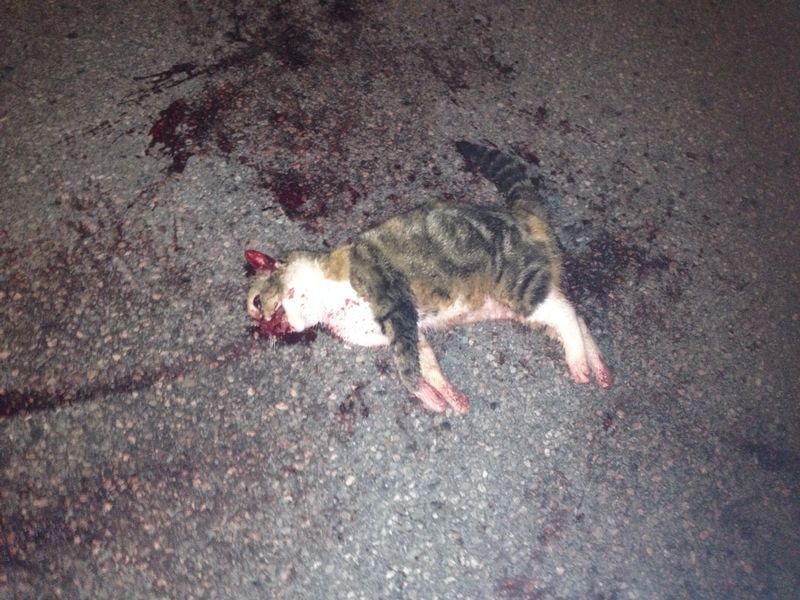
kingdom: Animalia
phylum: Chordata
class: Mammalia
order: Carnivora
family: Felidae
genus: Felis
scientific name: Felis catus
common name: Domestic cat
